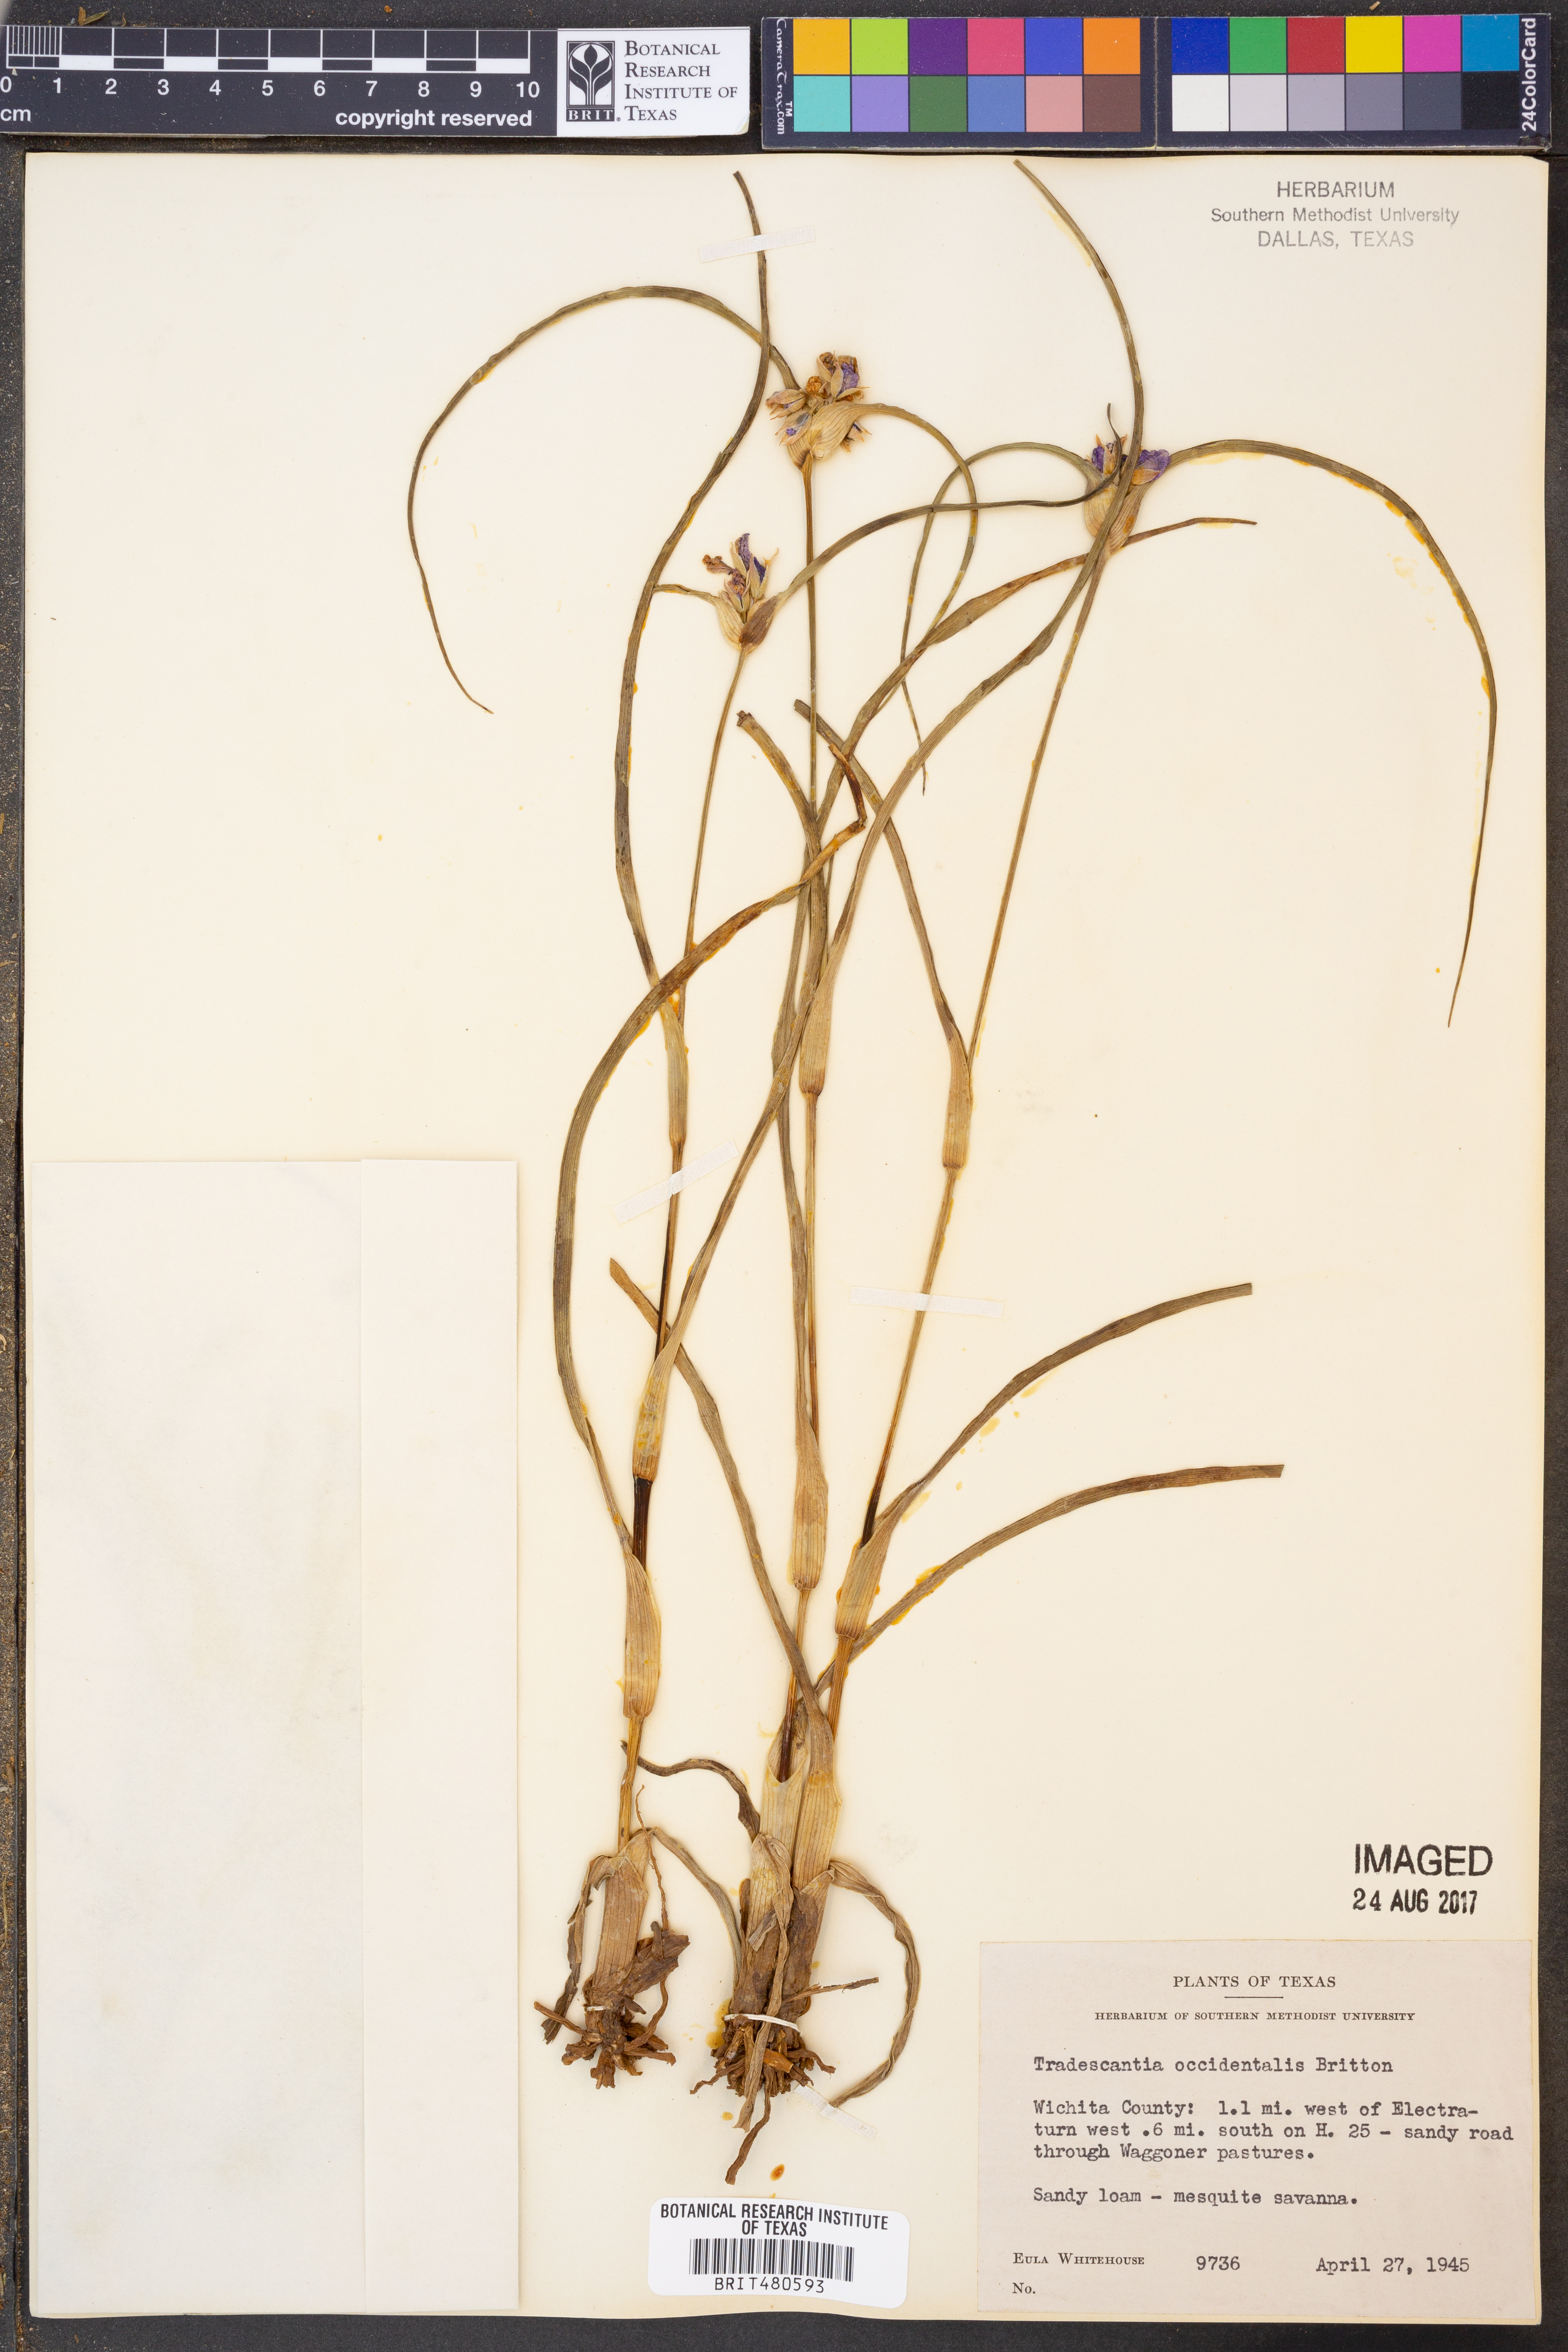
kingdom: Plantae
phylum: Tracheophyta
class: Liliopsida
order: Commelinales
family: Commelinaceae
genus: Tradescantia
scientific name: Tradescantia occidentalis
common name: Prairie spiderwort
